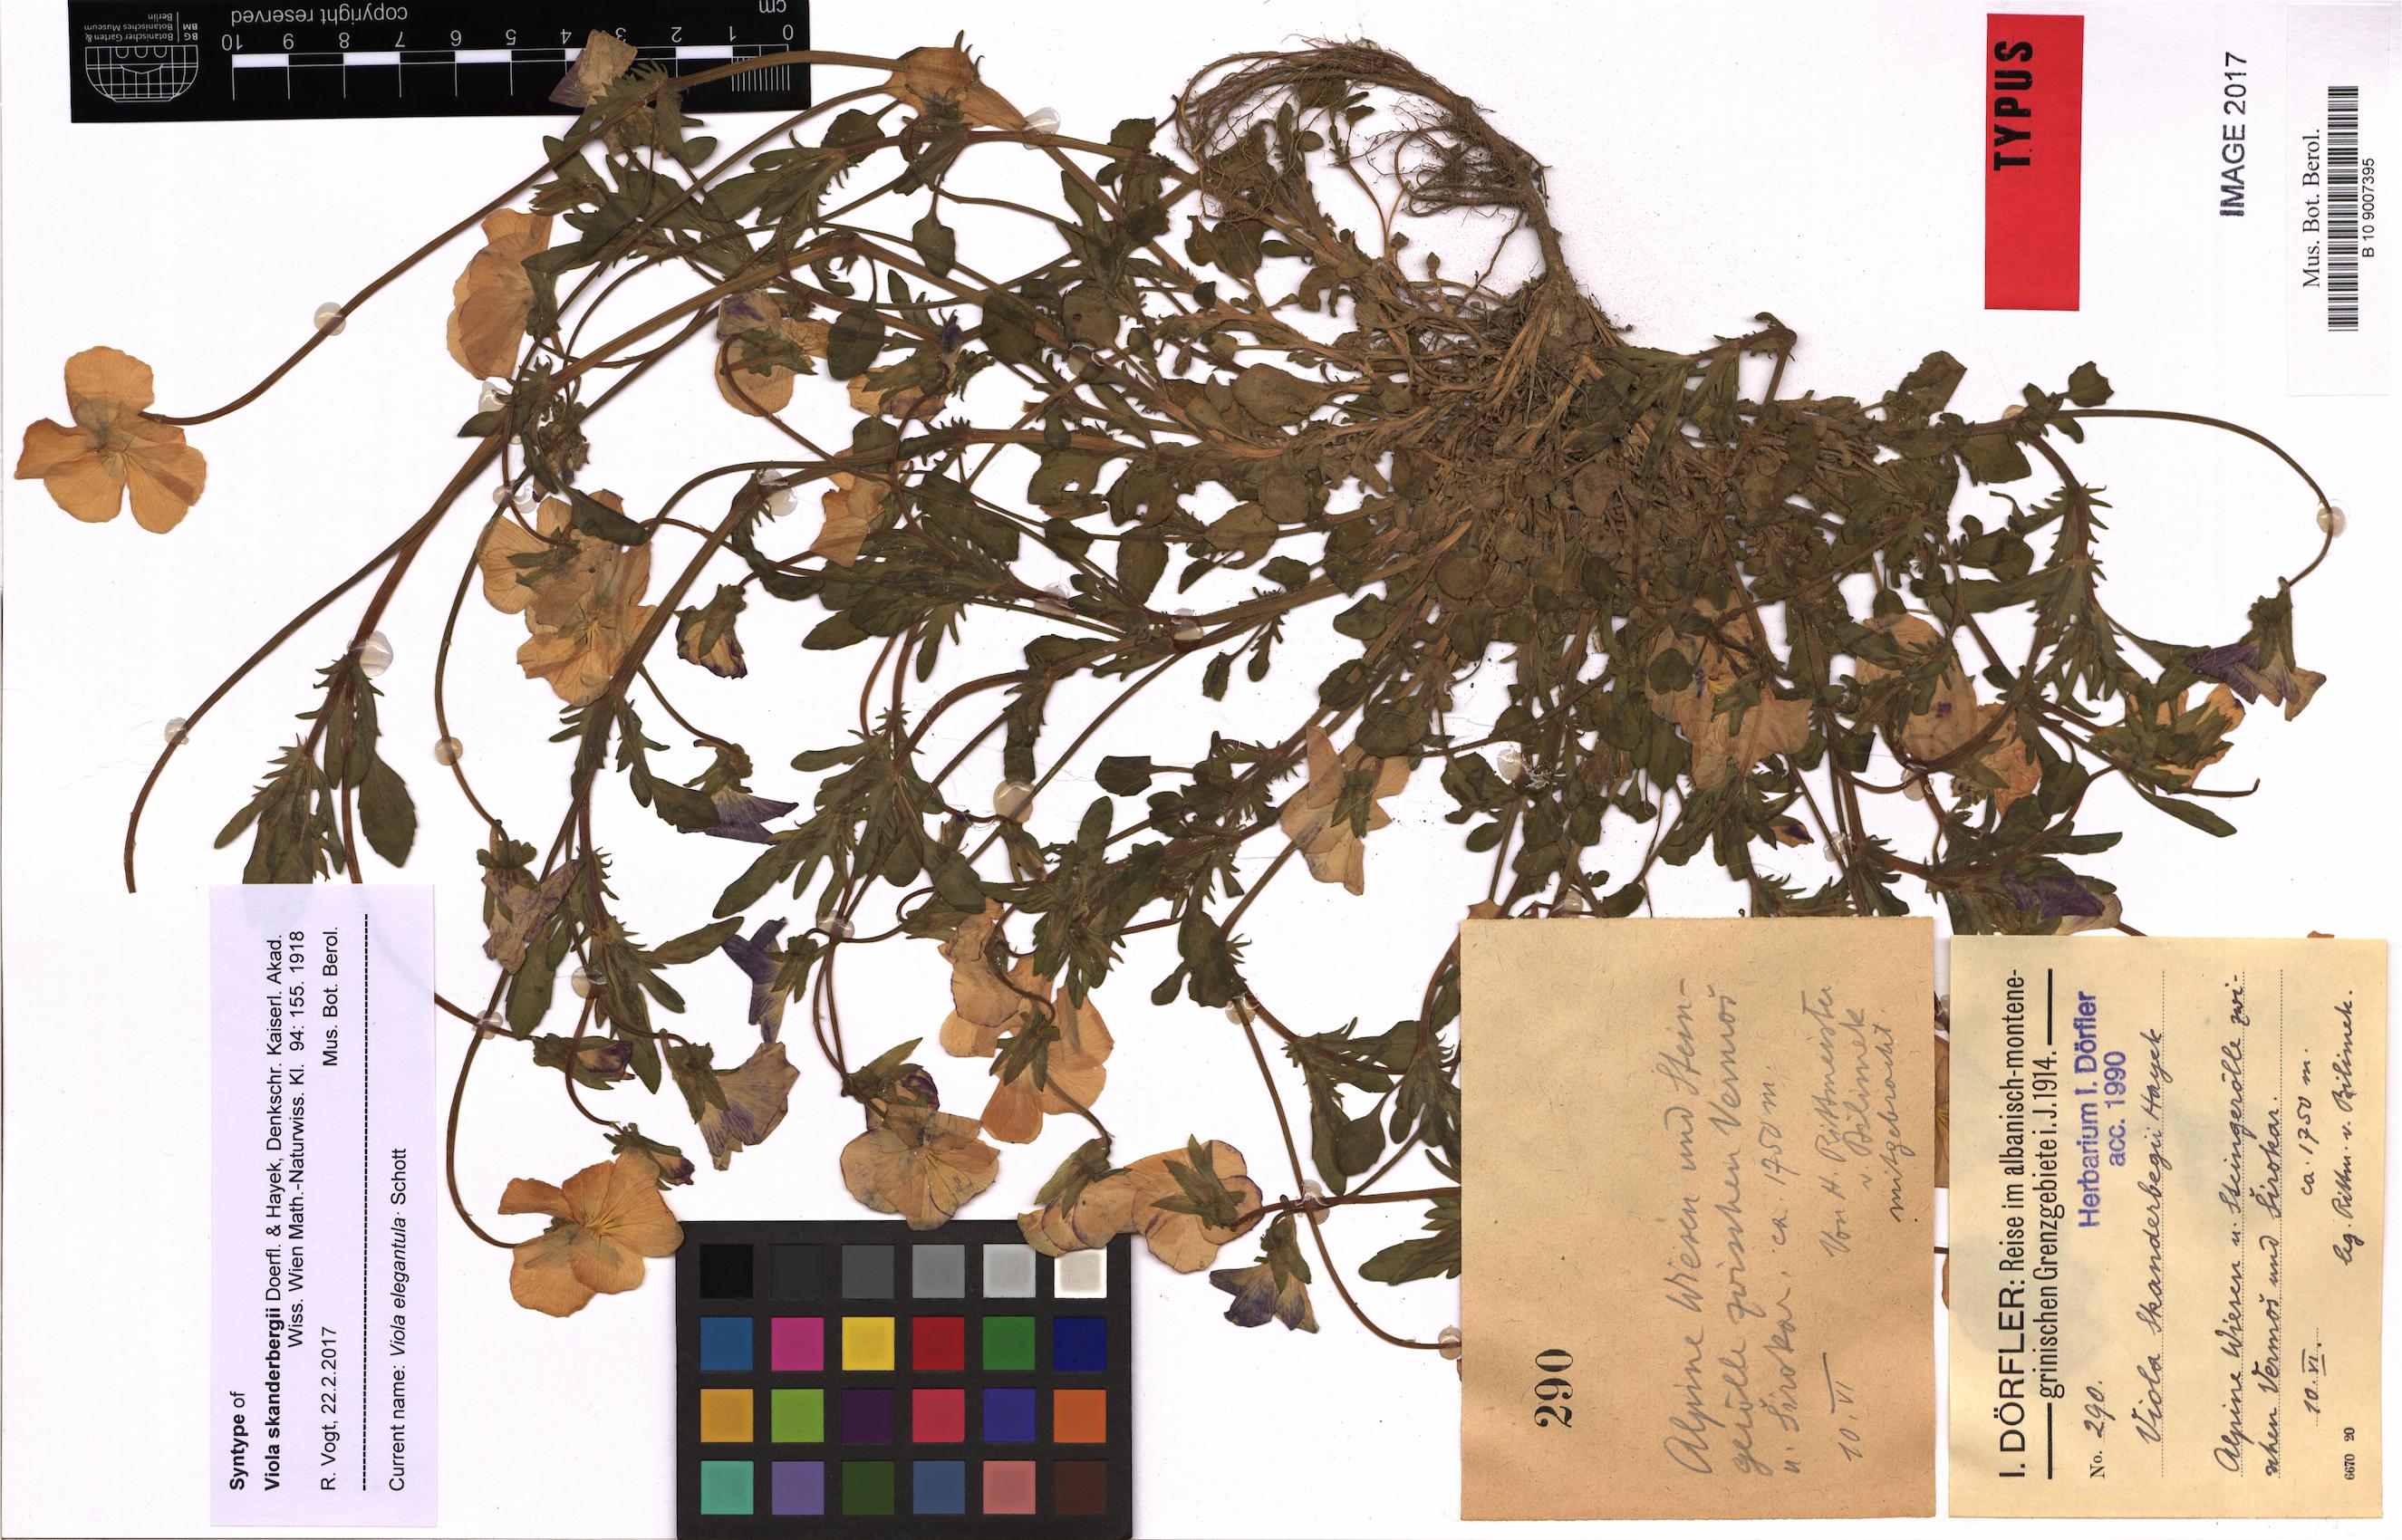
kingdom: Plantae
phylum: Tracheophyta
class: Magnoliopsida
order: Malpighiales
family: Violaceae
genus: Viola
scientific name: Viola elegantula
